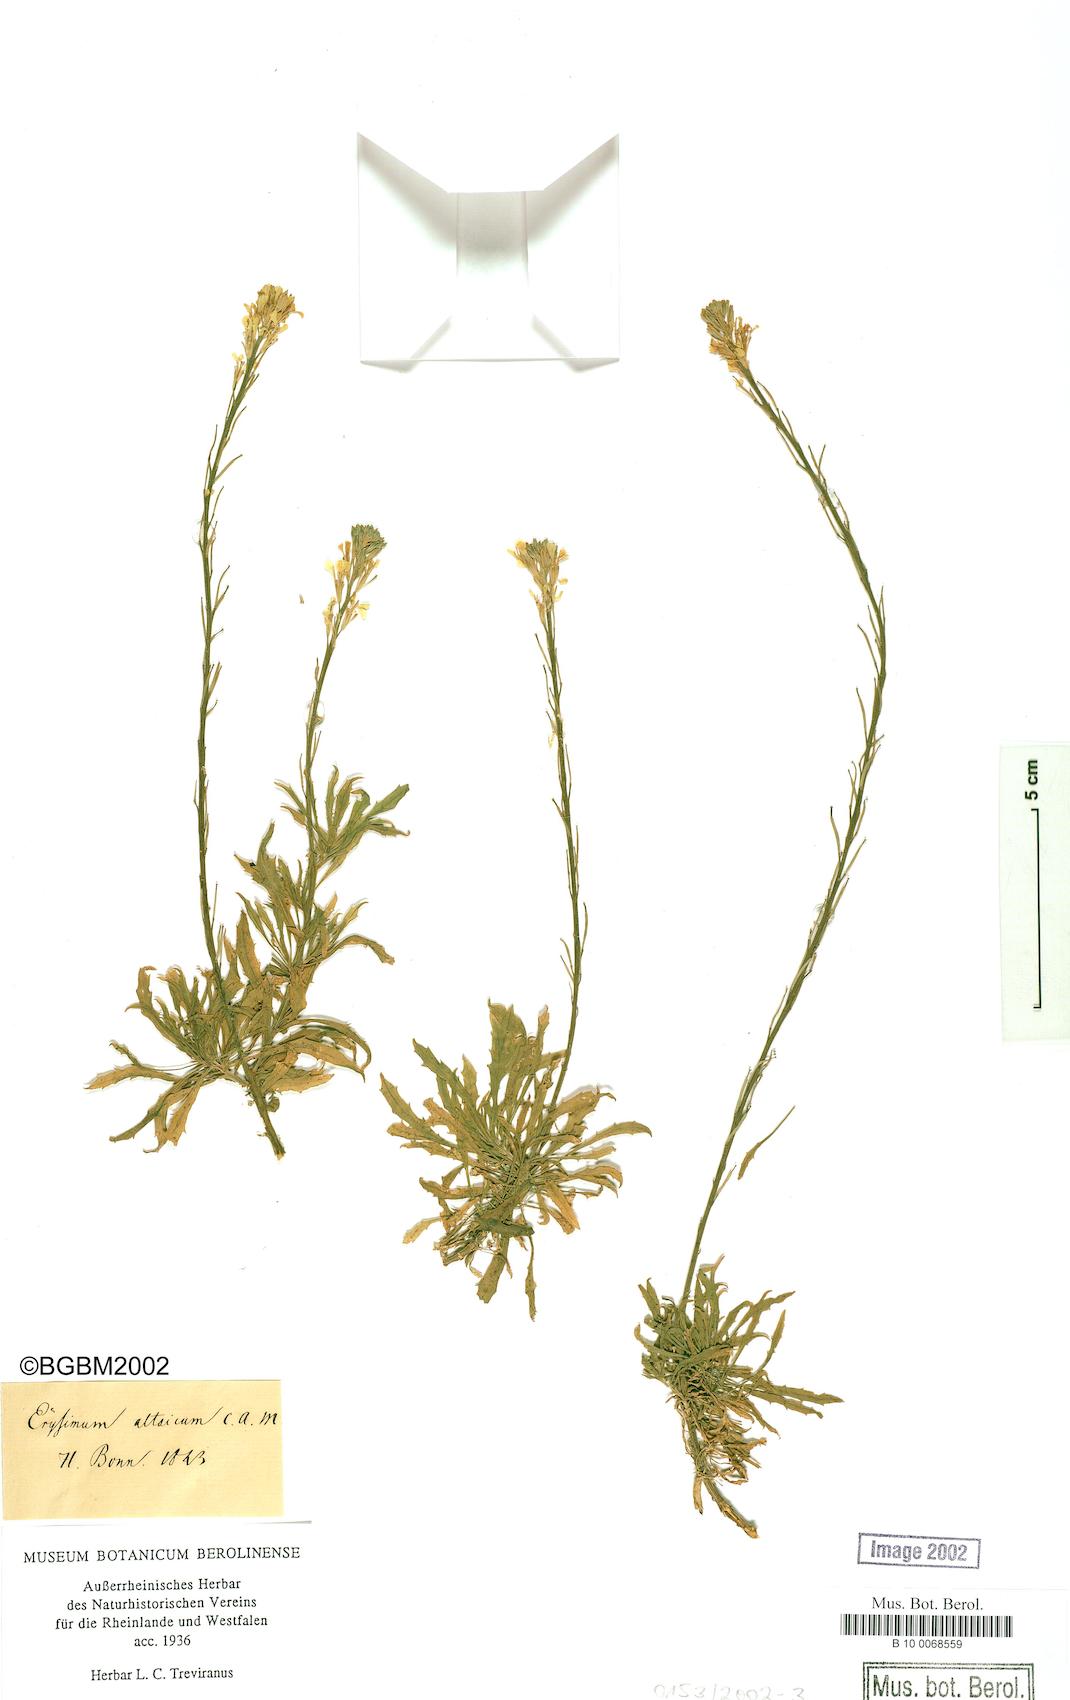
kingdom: Plantae
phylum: Tracheophyta
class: Magnoliopsida
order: Brassicales
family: Brassicaceae
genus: Erysimum
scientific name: Erysimum altaicum
